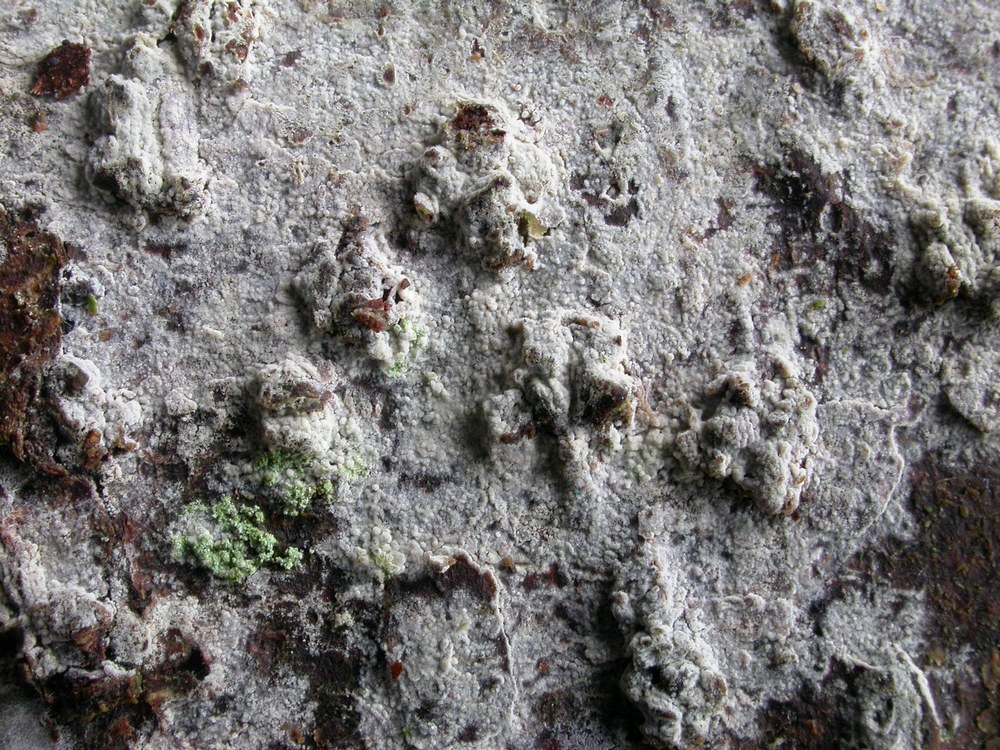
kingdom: Fungi
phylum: Basidiomycota
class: Agaricomycetes
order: Hymenochaetales
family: Hyphodontiaceae
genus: Hyphodontia
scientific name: Hyphodontia alutaria
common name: flaskerenser-nålehinde
